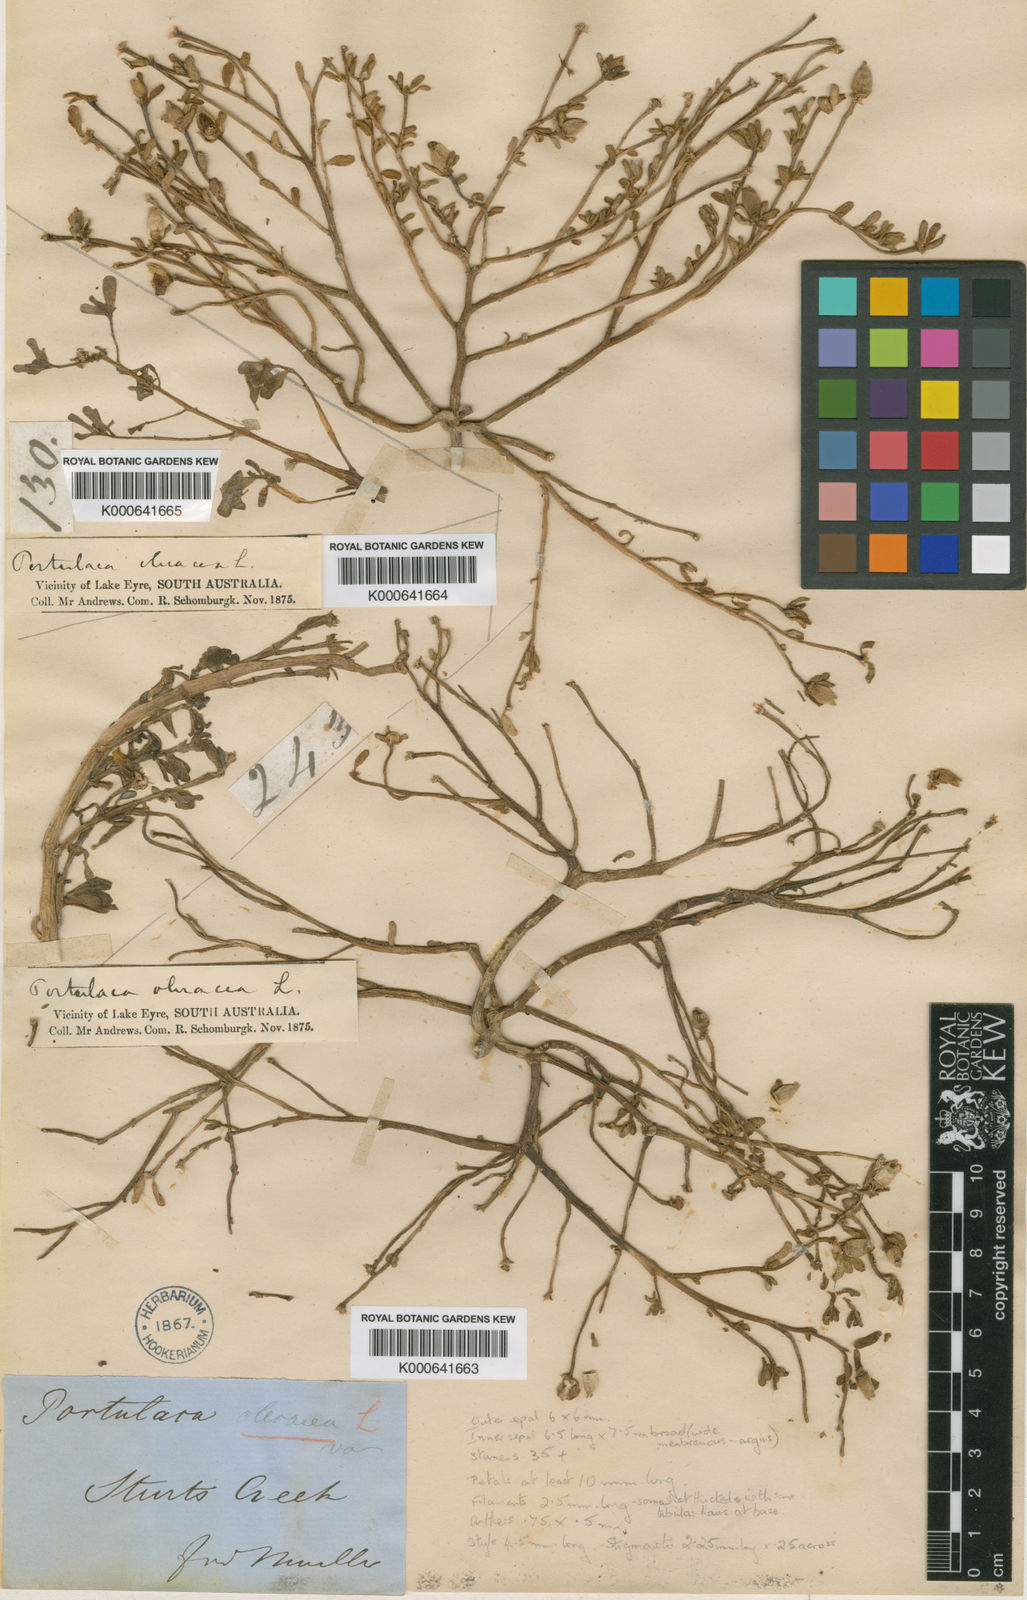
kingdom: Plantae
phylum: Tracheophyta
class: Magnoliopsida
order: Caryophyllales
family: Portulacaceae
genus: Portulaca
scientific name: Portulaca intraterranea
